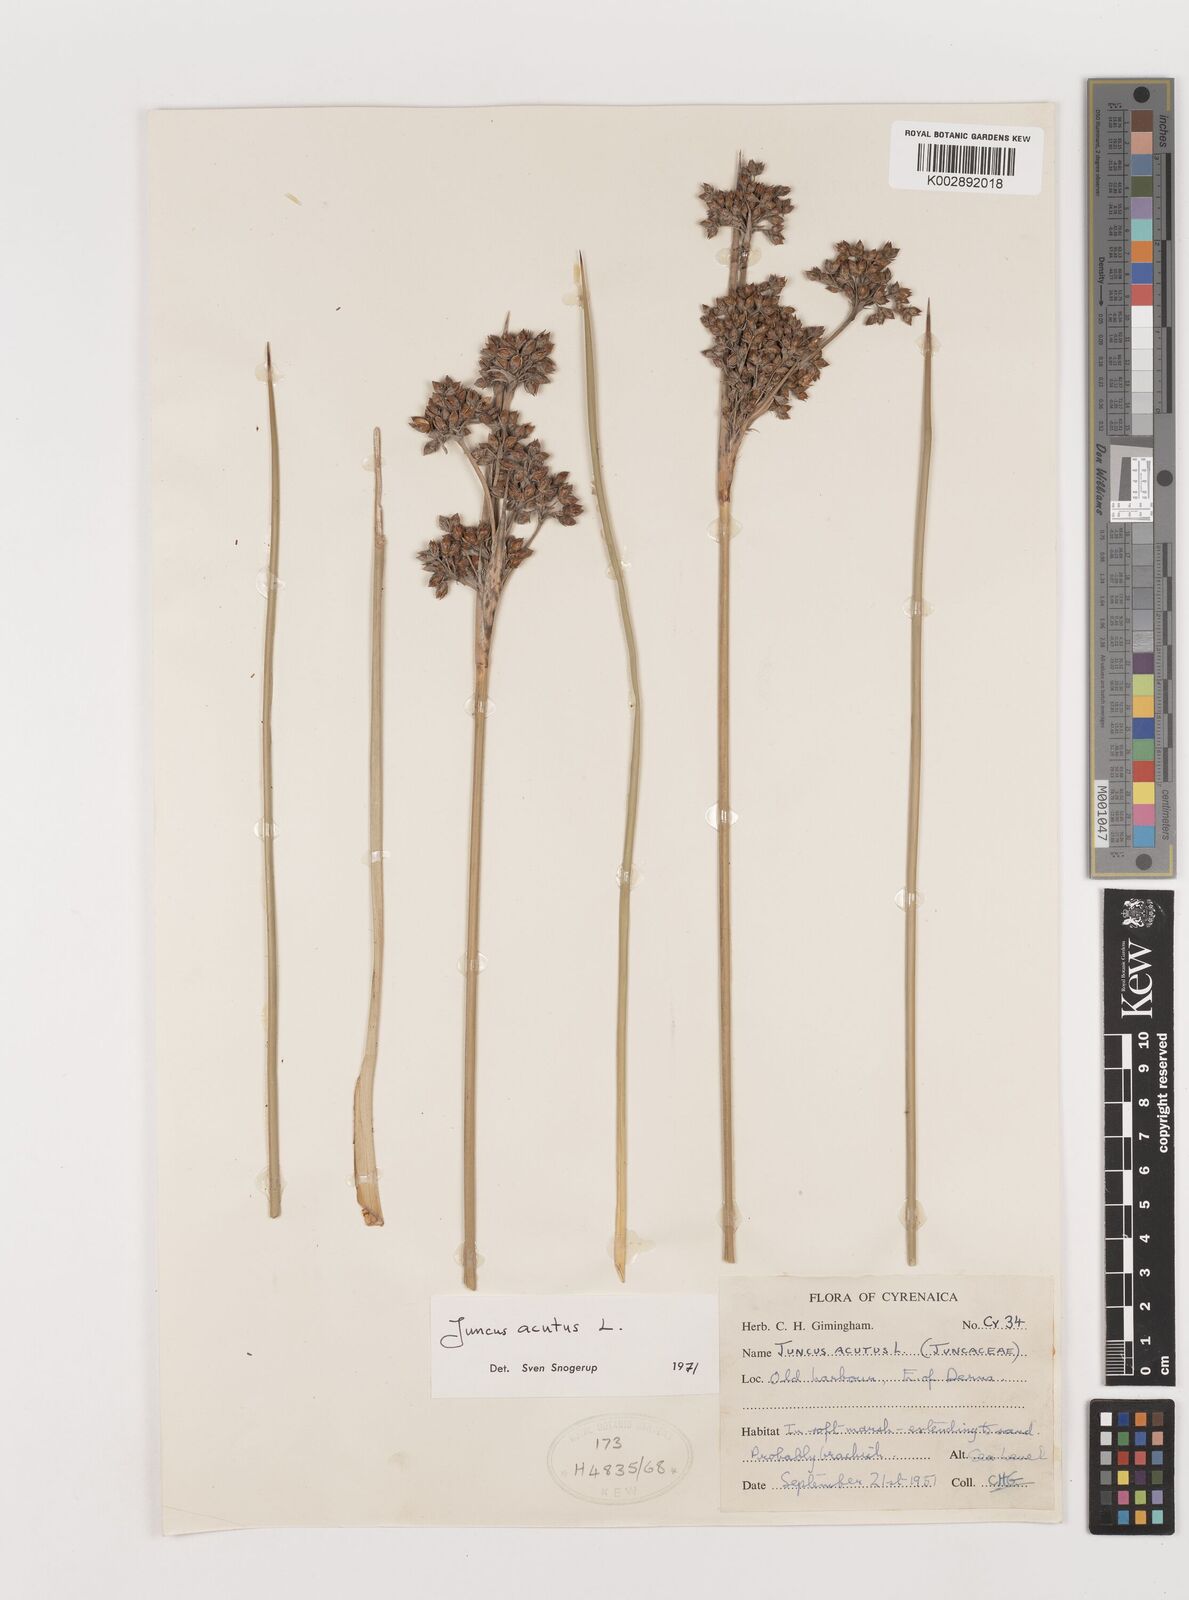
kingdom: Plantae
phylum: Tracheophyta
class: Liliopsida
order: Poales
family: Juncaceae
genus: Juncus
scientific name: Juncus acutus
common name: Sharp rush
